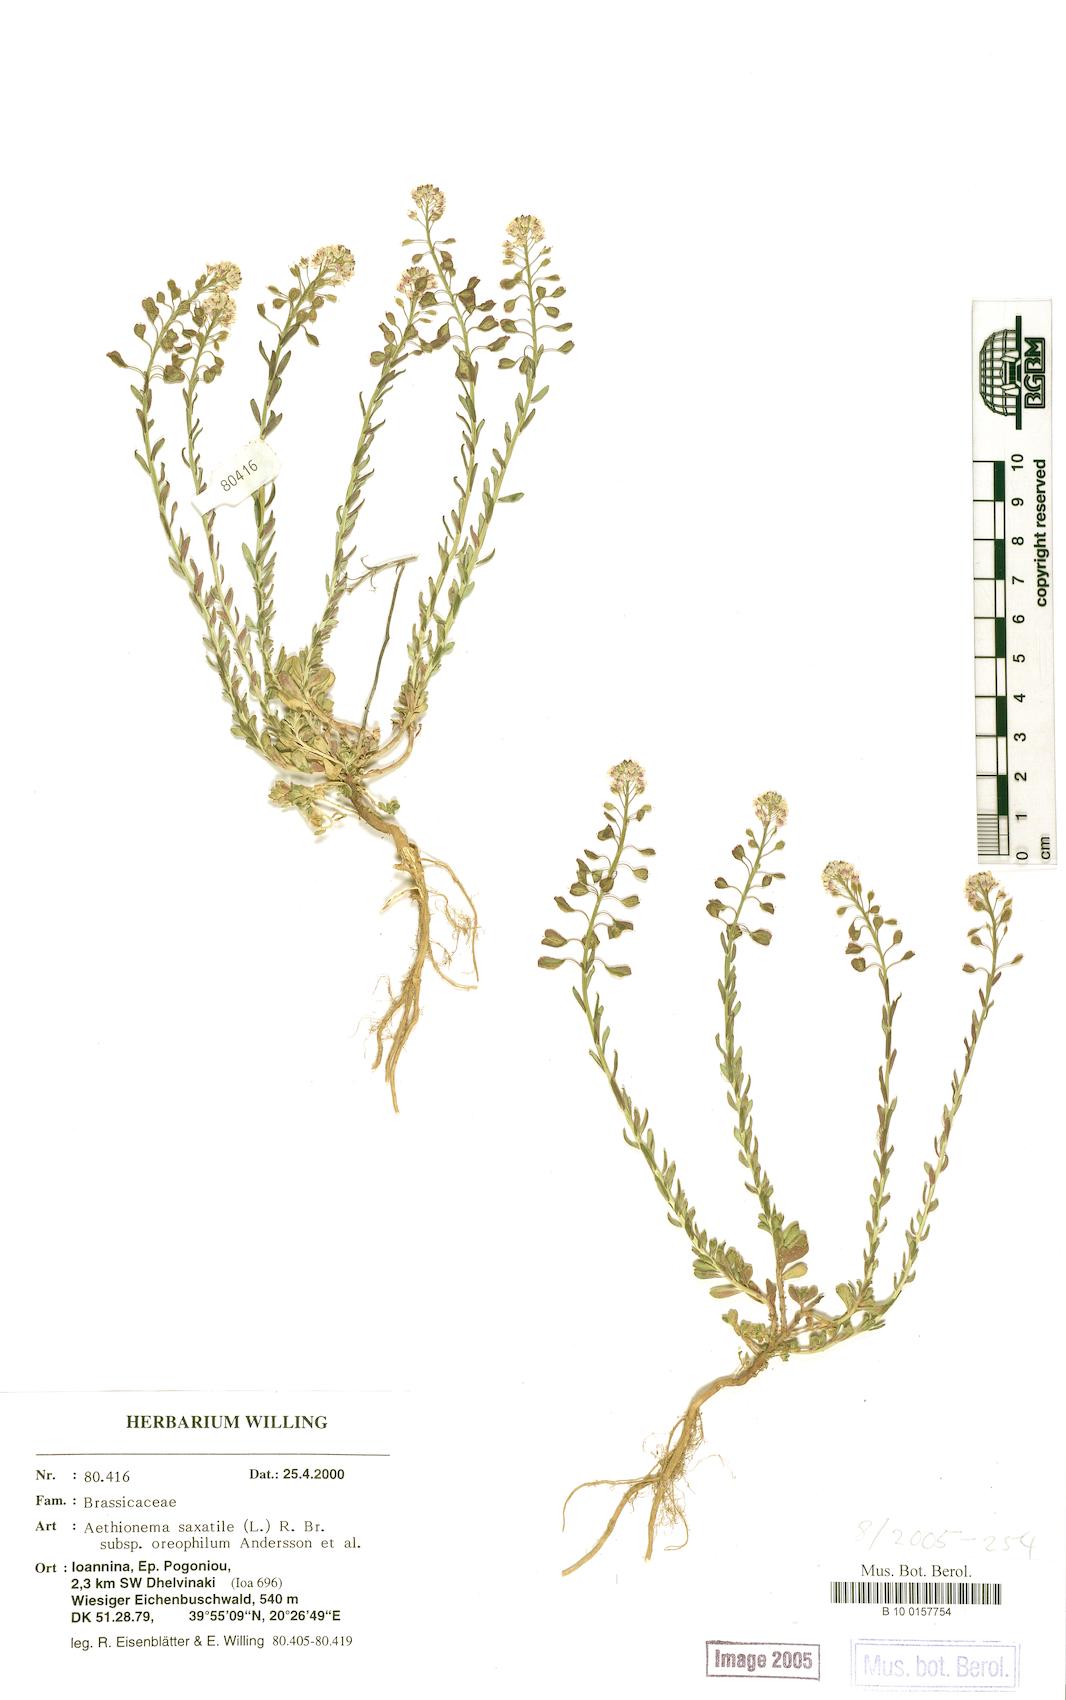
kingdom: Plantae
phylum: Tracheophyta
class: Magnoliopsida
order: Brassicales
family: Brassicaceae
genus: Aethionema
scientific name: Aethionema saxatile
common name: Burnt candytuft
